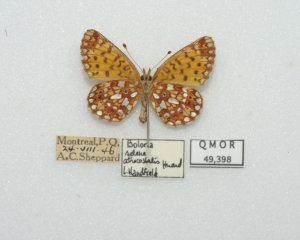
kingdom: Animalia
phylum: Arthropoda
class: Insecta
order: Lepidoptera
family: Nymphalidae
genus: Boloria
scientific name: Boloria selene
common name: Silver-bordered Fritillary
